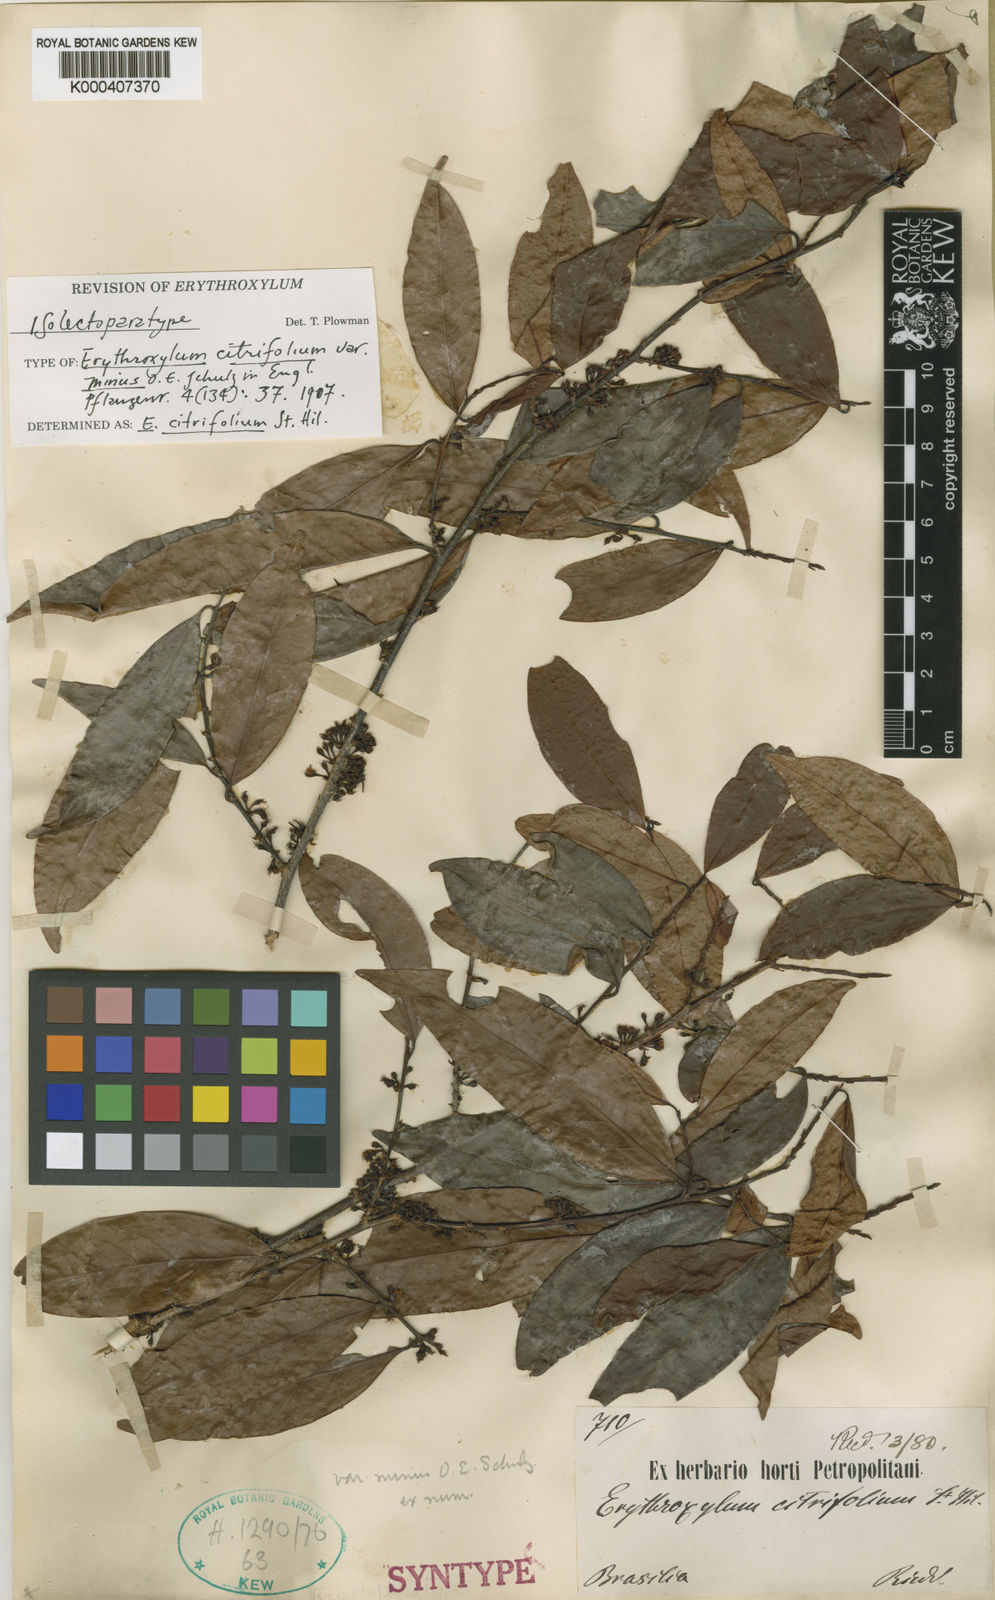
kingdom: Plantae
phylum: Tracheophyta
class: Magnoliopsida
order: Malpighiales
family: Erythroxylaceae
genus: Erythroxylum
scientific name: Erythroxylum citrifolium
